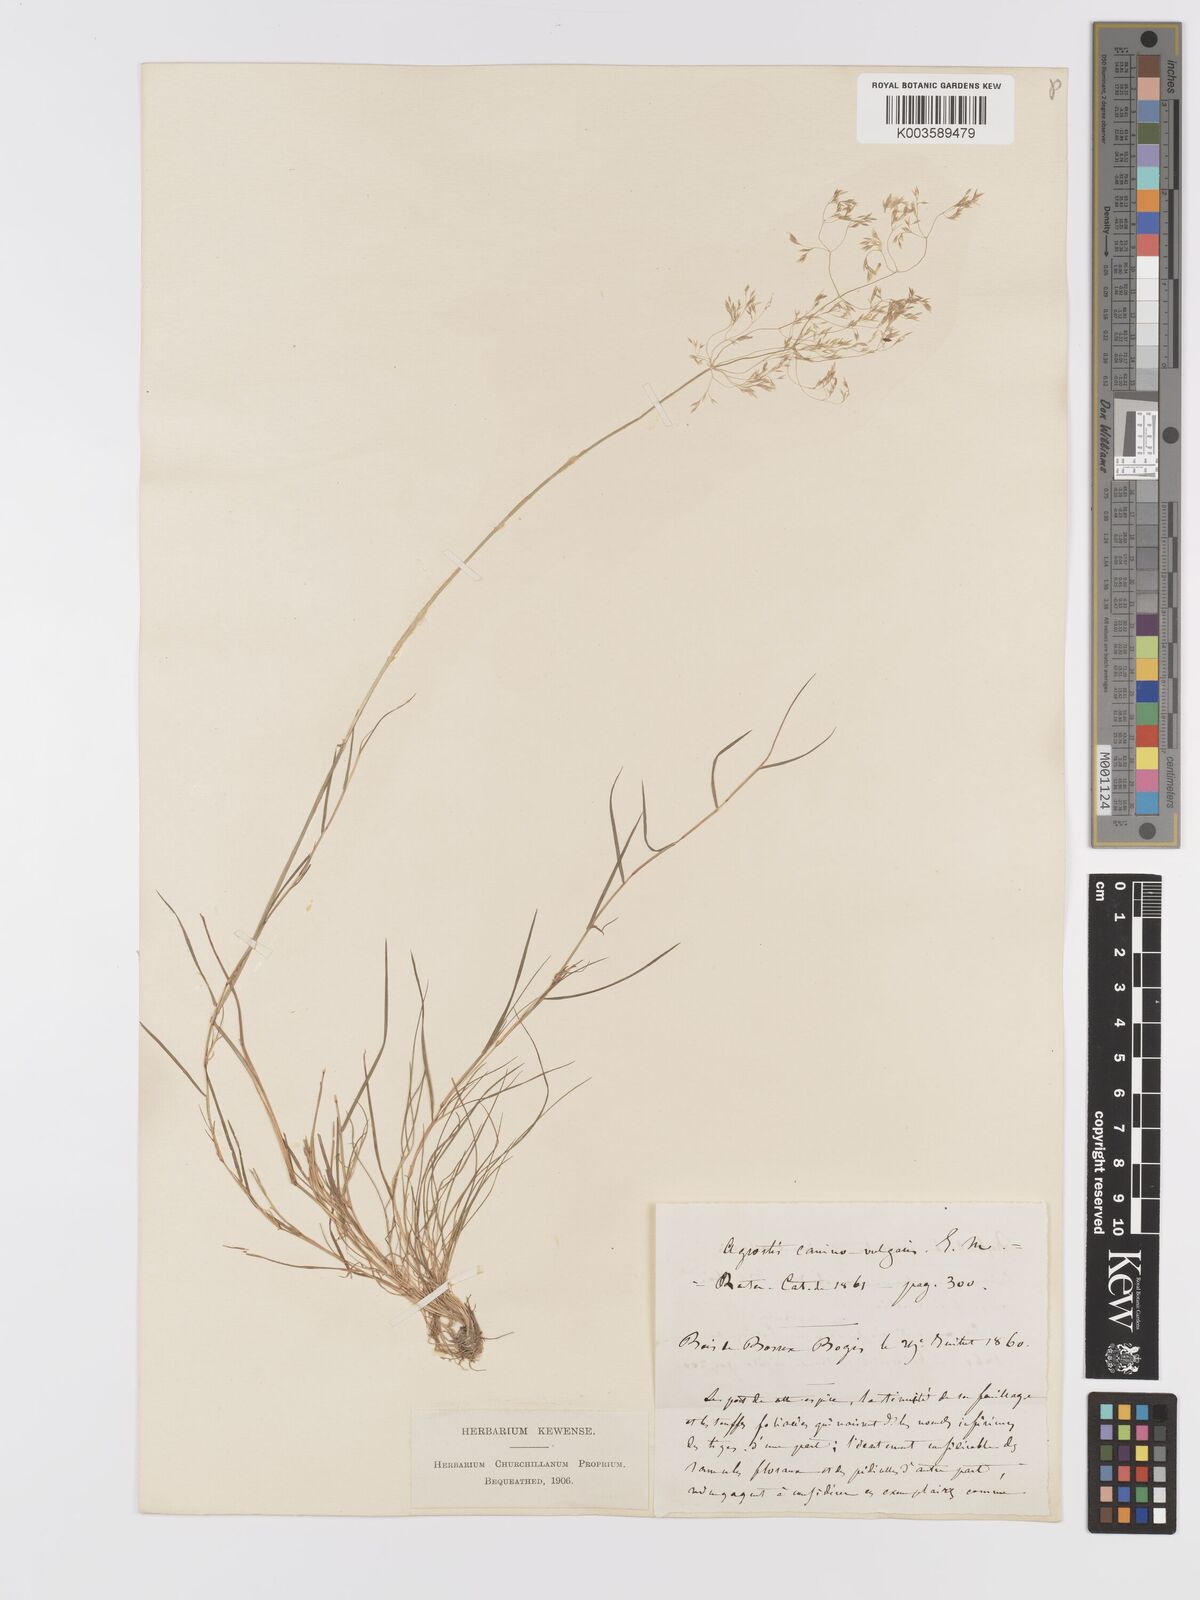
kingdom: Plantae
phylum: Tracheophyta
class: Liliopsida
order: Poales
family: Poaceae
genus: Agrostis
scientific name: Agrostis canina
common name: Velvet bent
